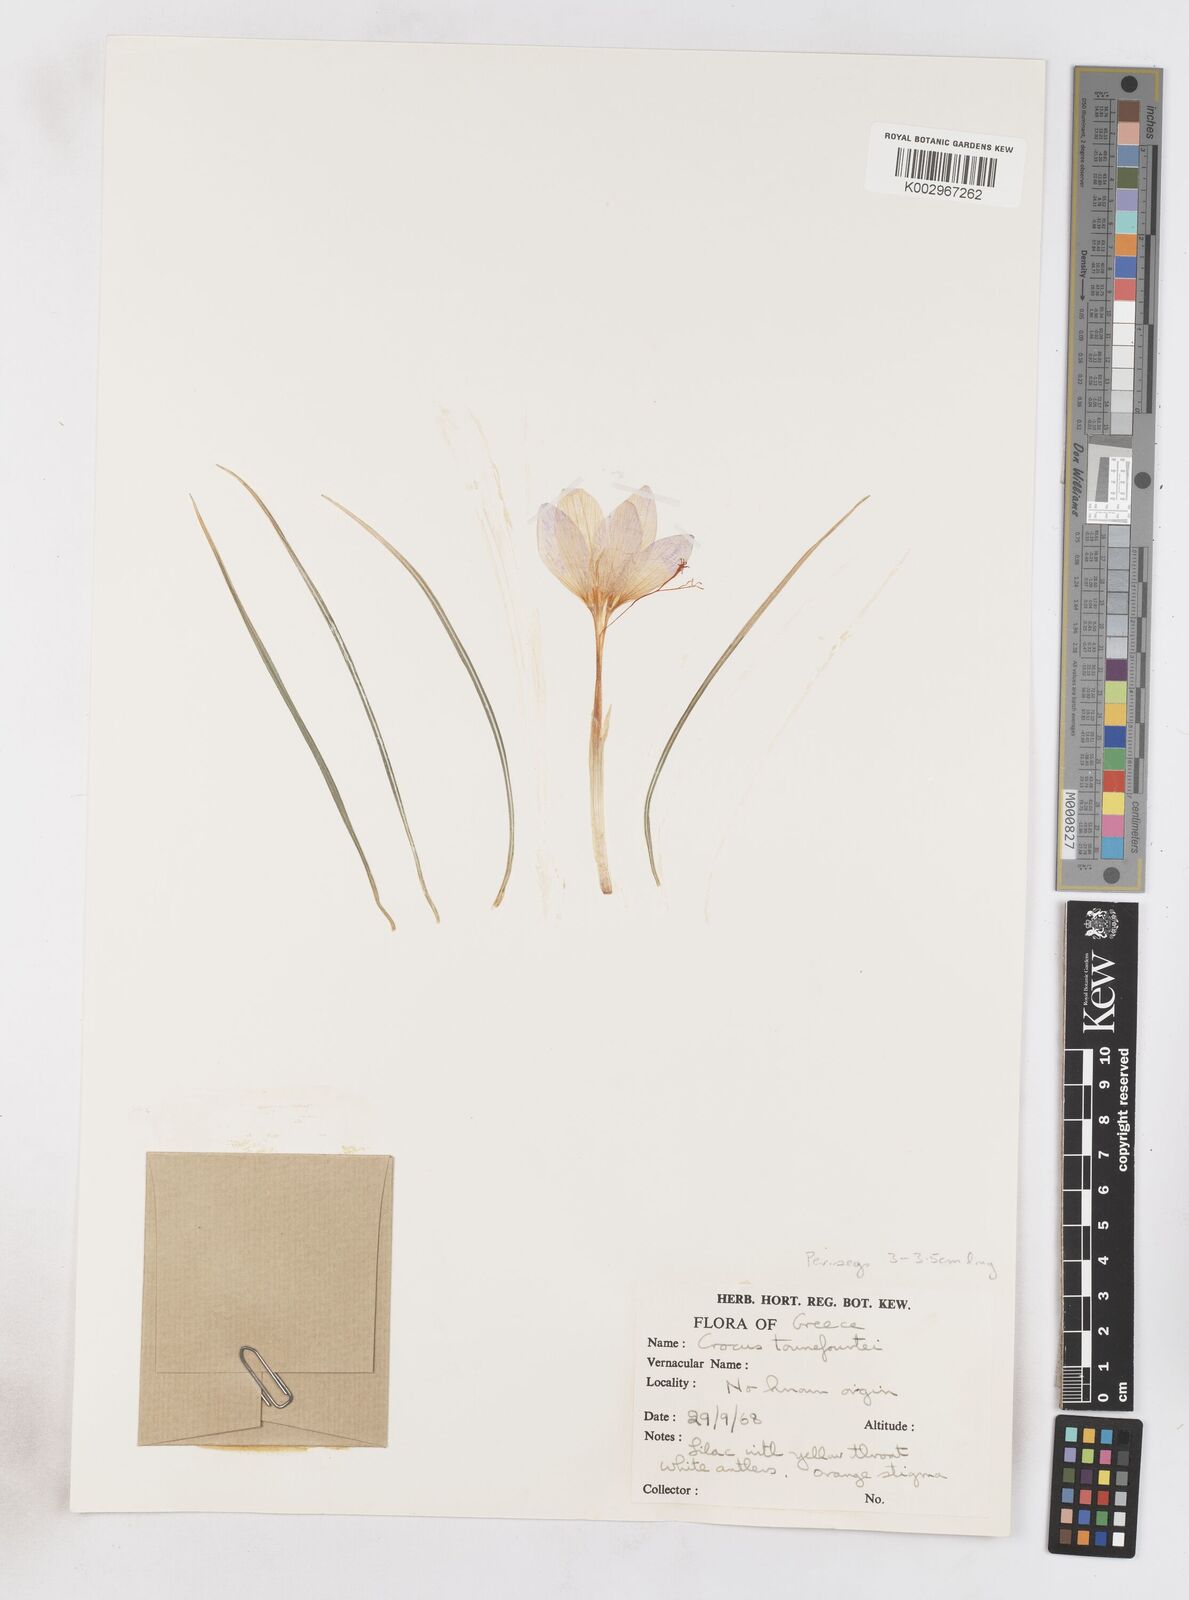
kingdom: Plantae
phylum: Tracheophyta
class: Liliopsida
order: Asparagales
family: Iridaceae
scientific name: Iridaceae
